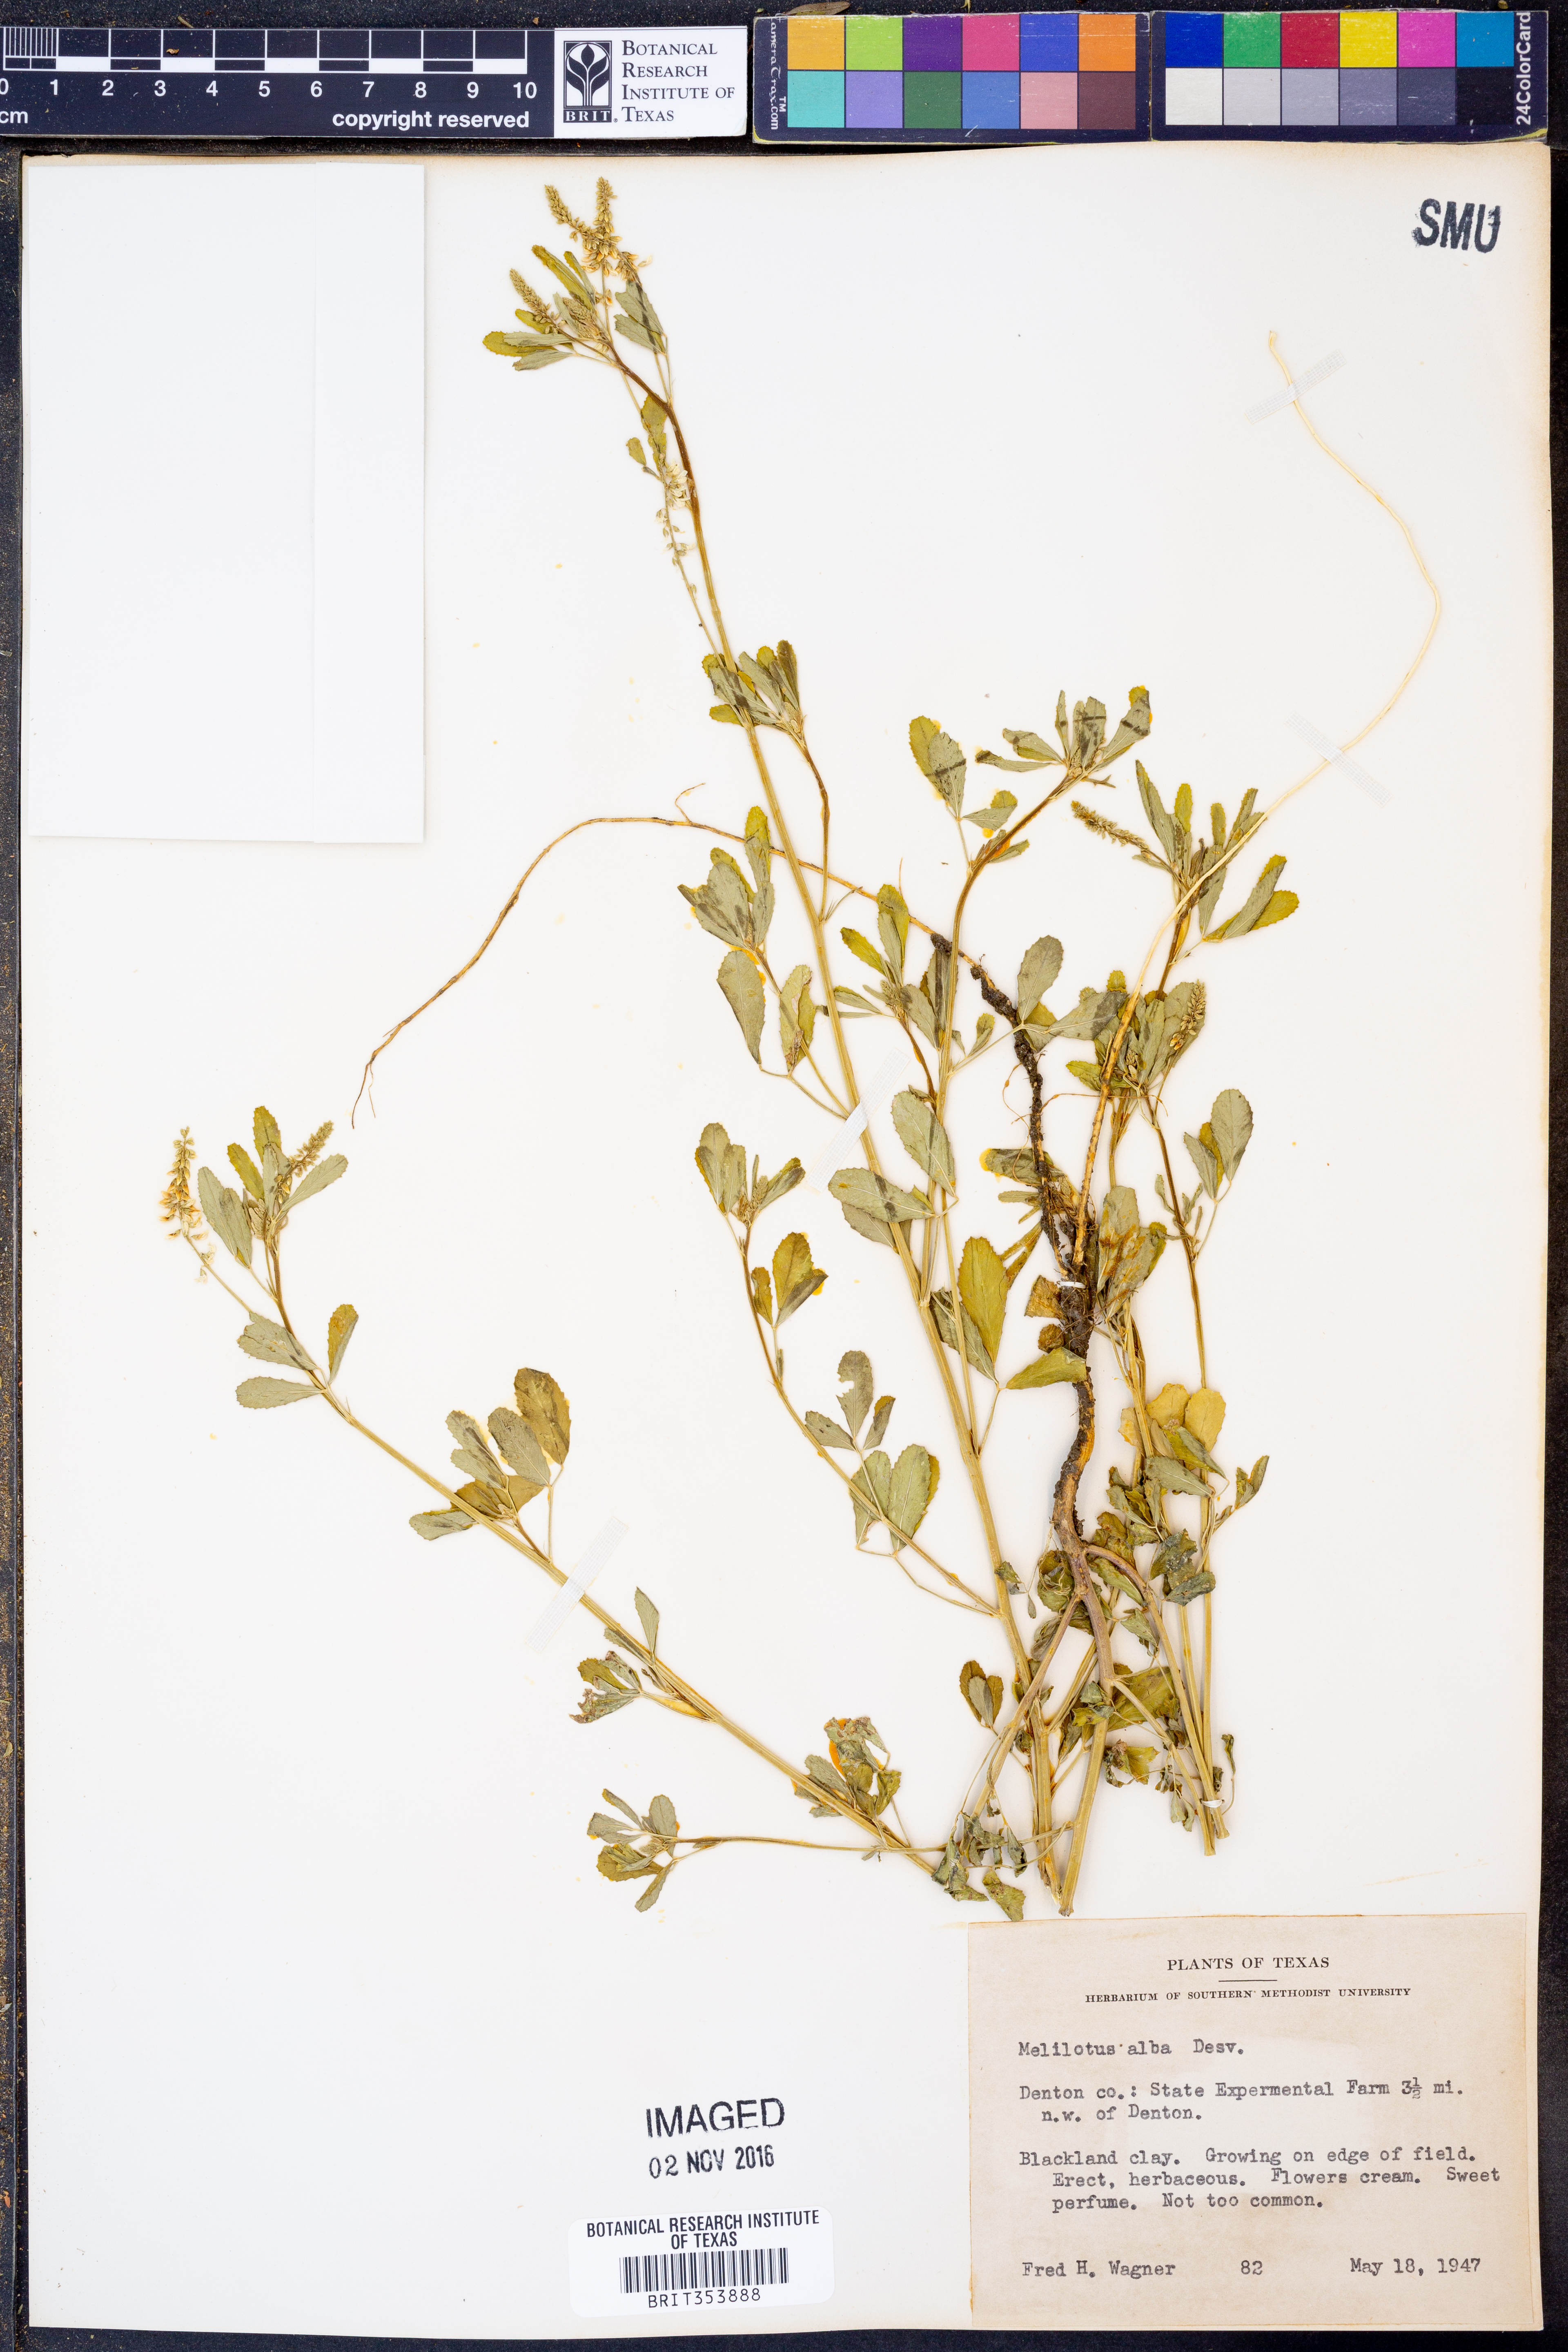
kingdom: Plantae
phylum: Tracheophyta
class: Magnoliopsida
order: Fabales
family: Fabaceae
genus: Melilotus
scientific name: Melilotus albus
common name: White melilot
